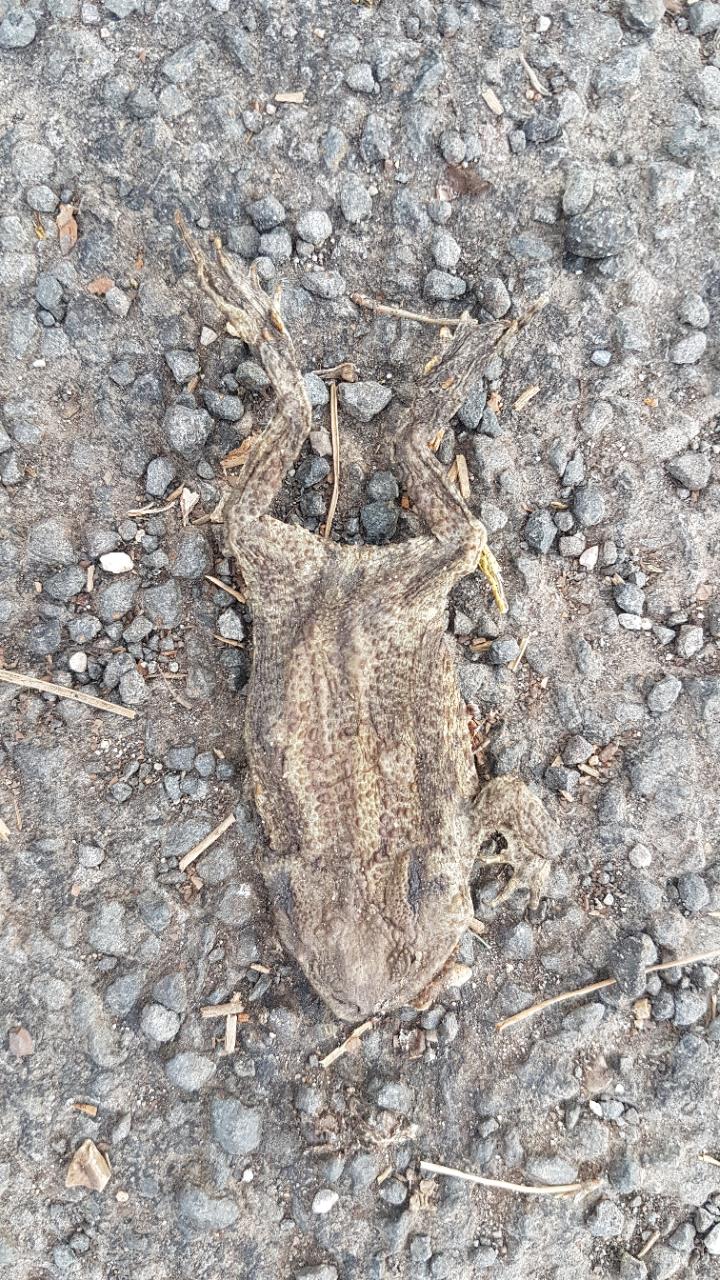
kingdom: Animalia
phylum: Chordata
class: Amphibia
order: Anura
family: Bufonidae
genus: Bufo
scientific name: Bufo bufo
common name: Common toad
